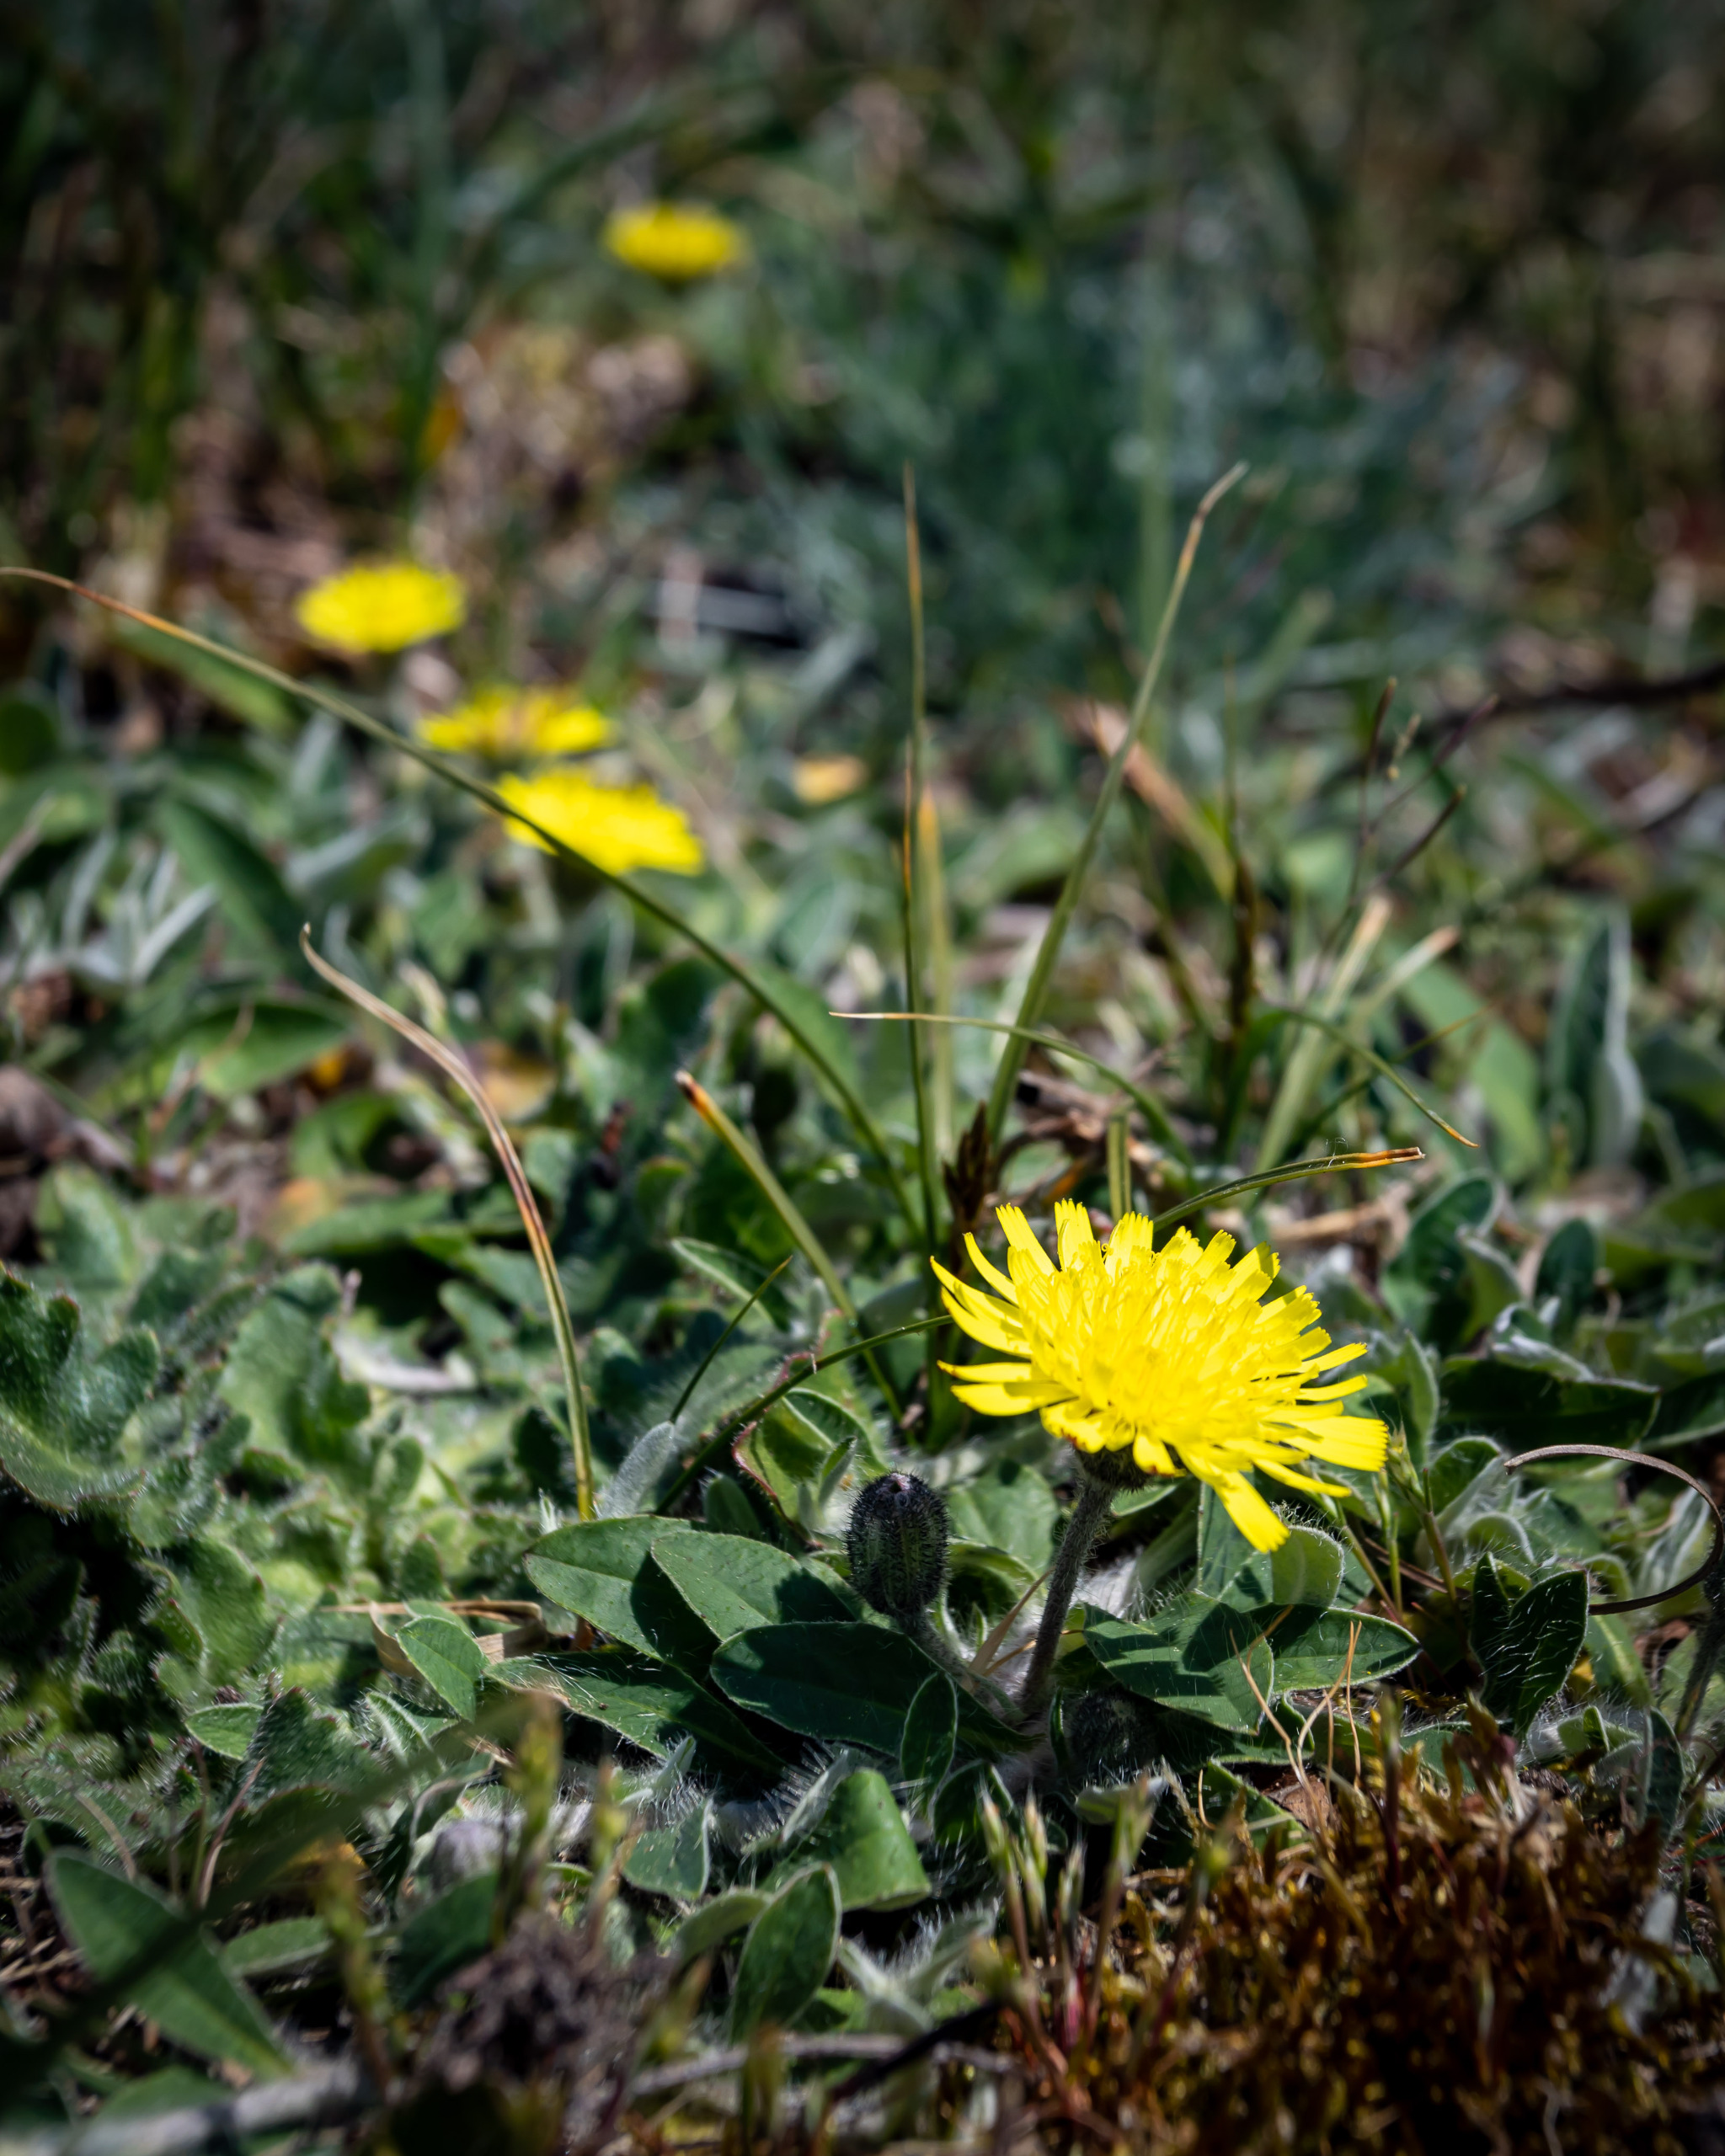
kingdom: Plantae
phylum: Tracheophyta
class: Magnoliopsida
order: Asterales
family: Asteraceae
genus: Pilosella
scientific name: Pilosella officinarum
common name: Håret høgeurt
